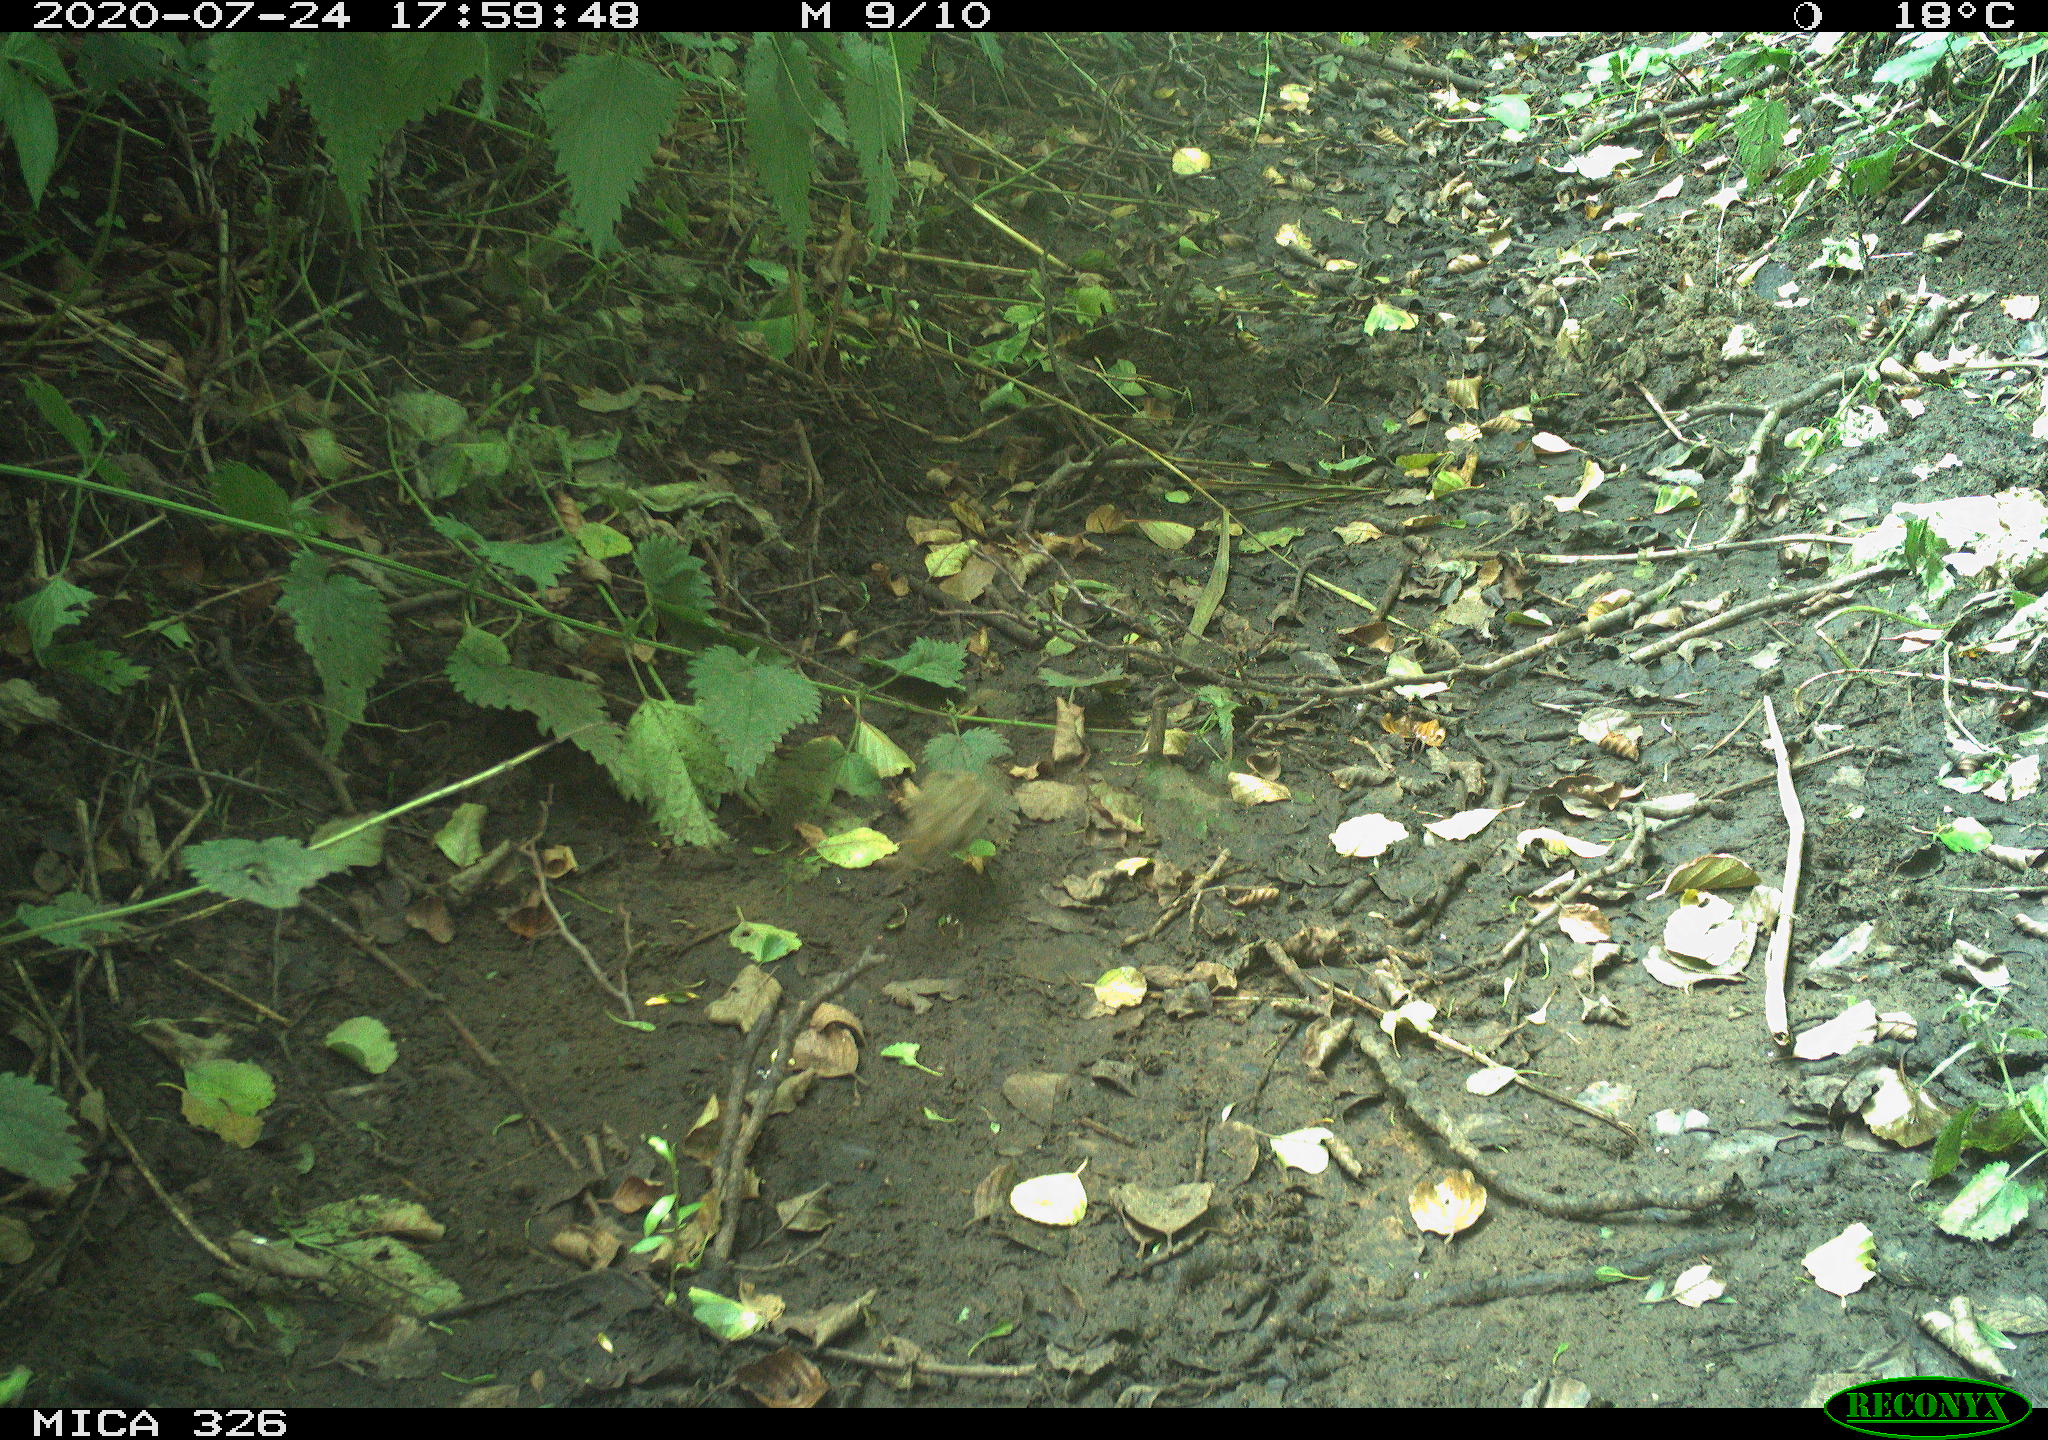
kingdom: Animalia
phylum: Chordata
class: Aves
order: Passeriformes
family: Muscicapidae
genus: Erithacus
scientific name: Erithacus rubecula
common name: European robin
